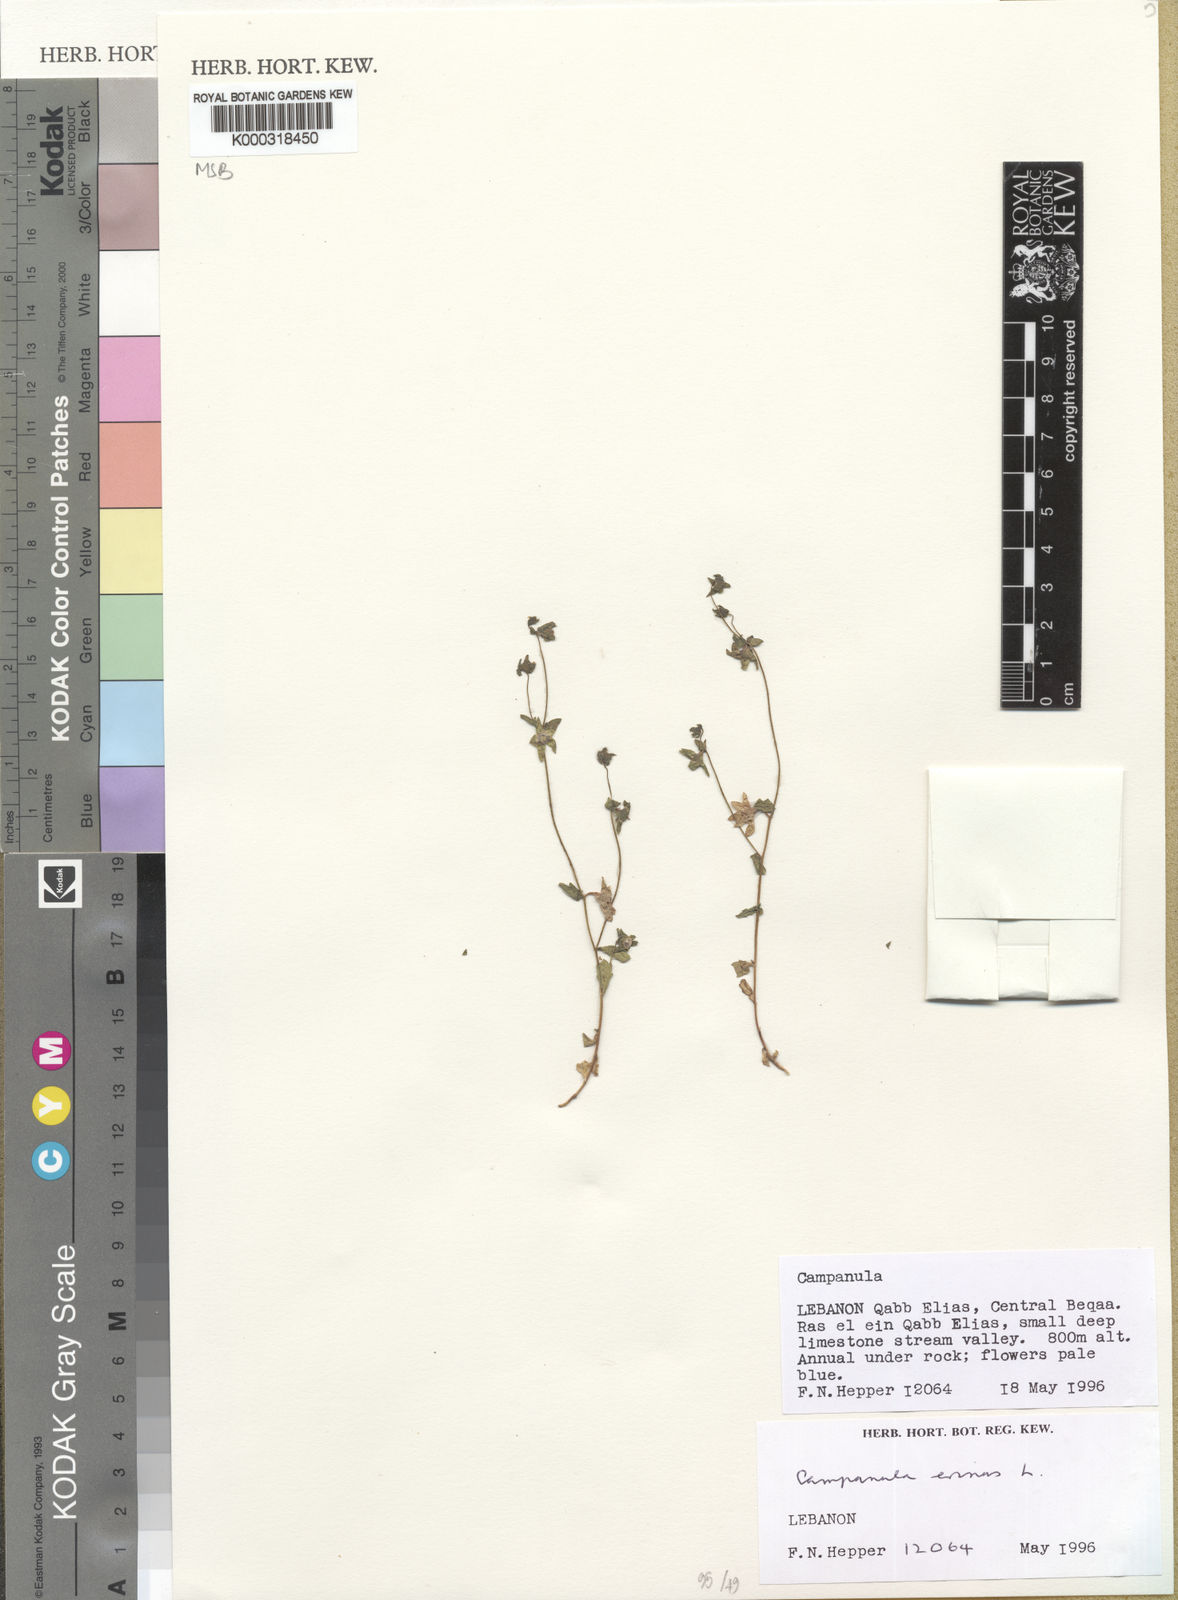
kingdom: Plantae
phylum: Tracheophyta
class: Magnoliopsida
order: Asterales
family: Campanulaceae
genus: Campanula
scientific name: Campanula erinus
